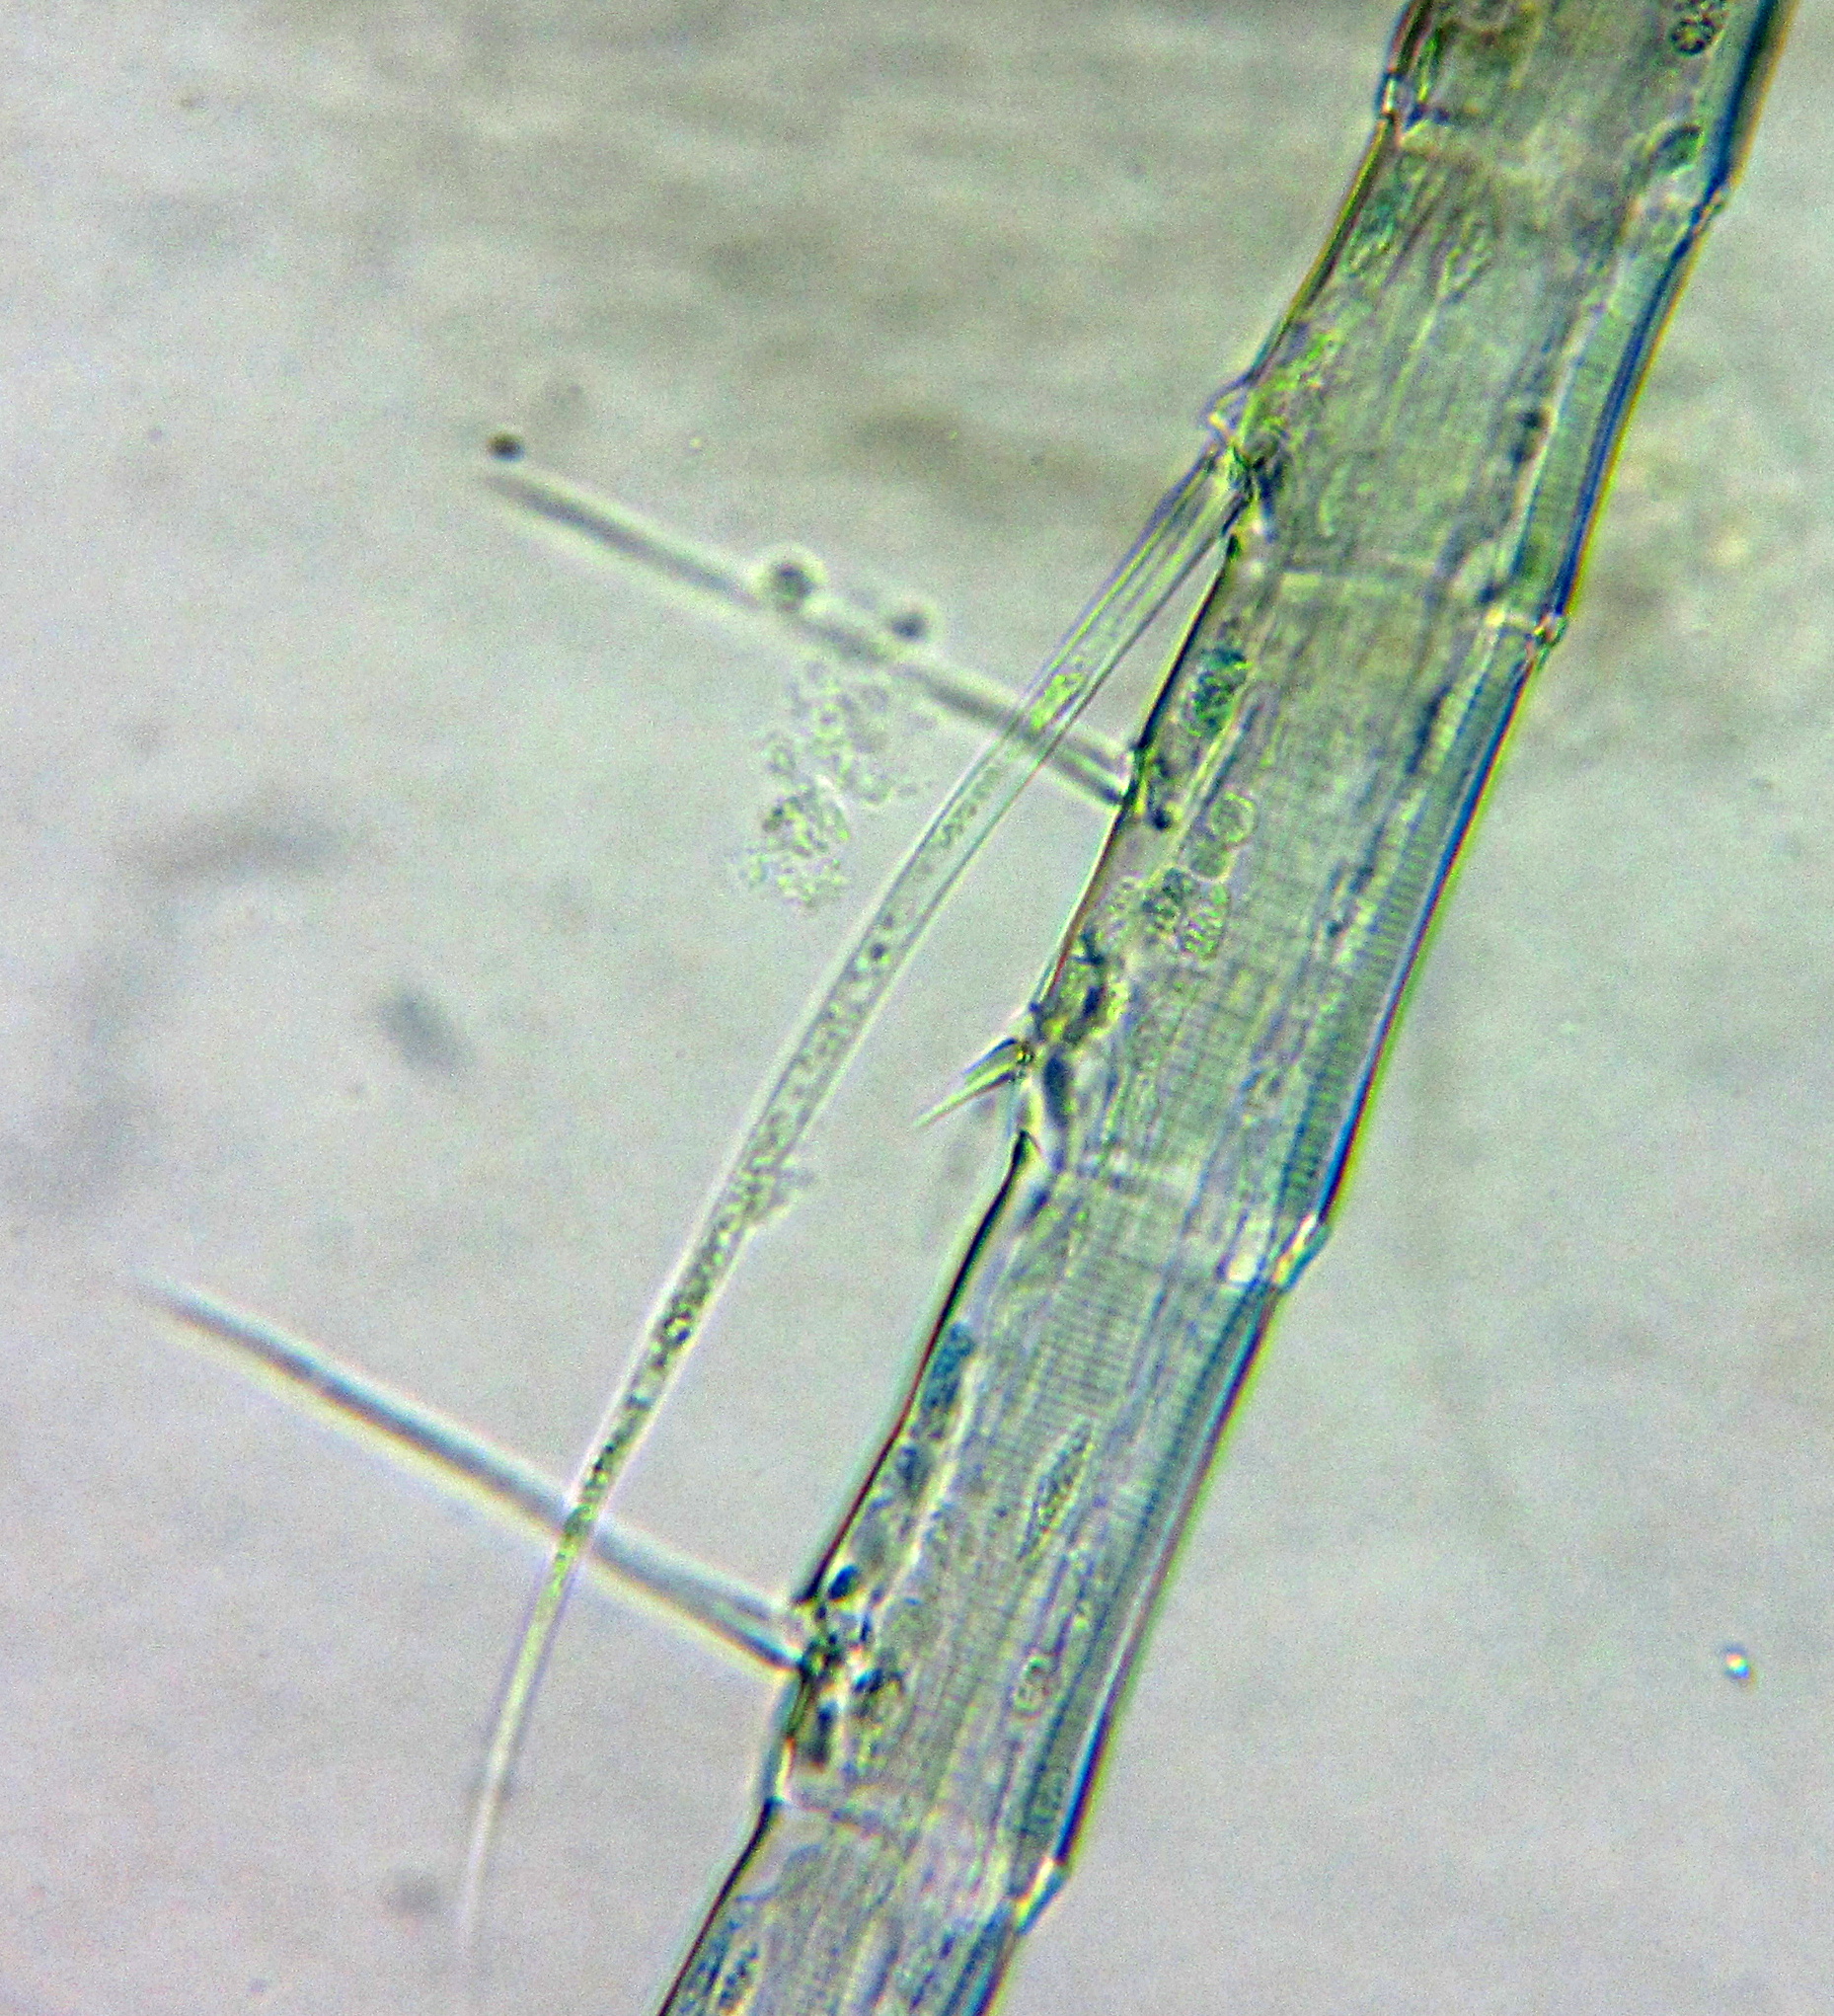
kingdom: Animalia
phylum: Arthropoda
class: Copepoda
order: Calanoida
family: Diaptomidae
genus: Diaptomus
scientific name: Diaptomus zografi
